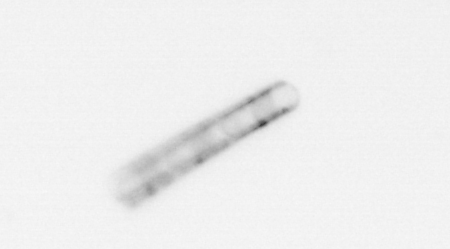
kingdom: Chromista
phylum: Ochrophyta
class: Bacillariophyceae
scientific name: Bacillariophyceae
